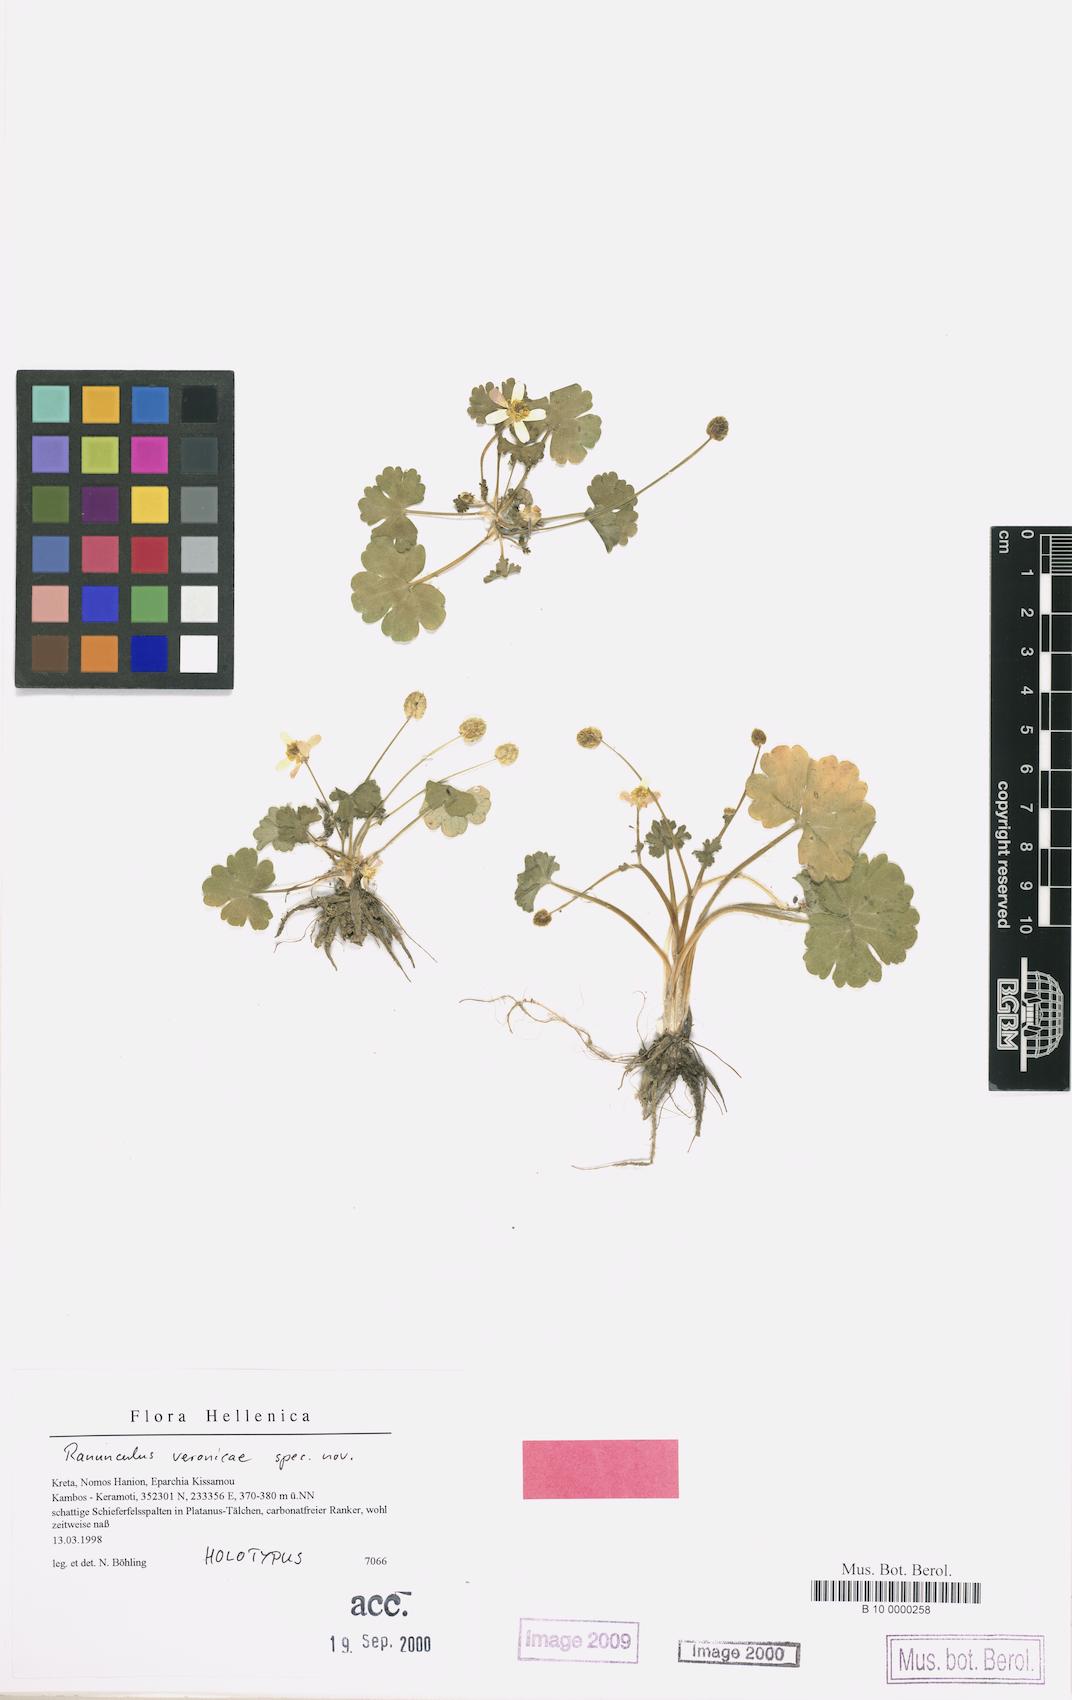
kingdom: Plantae
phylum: Tracheophyta
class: Magnoliopsida
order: Ranunculales
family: Ranunculaceae
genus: Ranunculus
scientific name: Ranunculus veronicae
